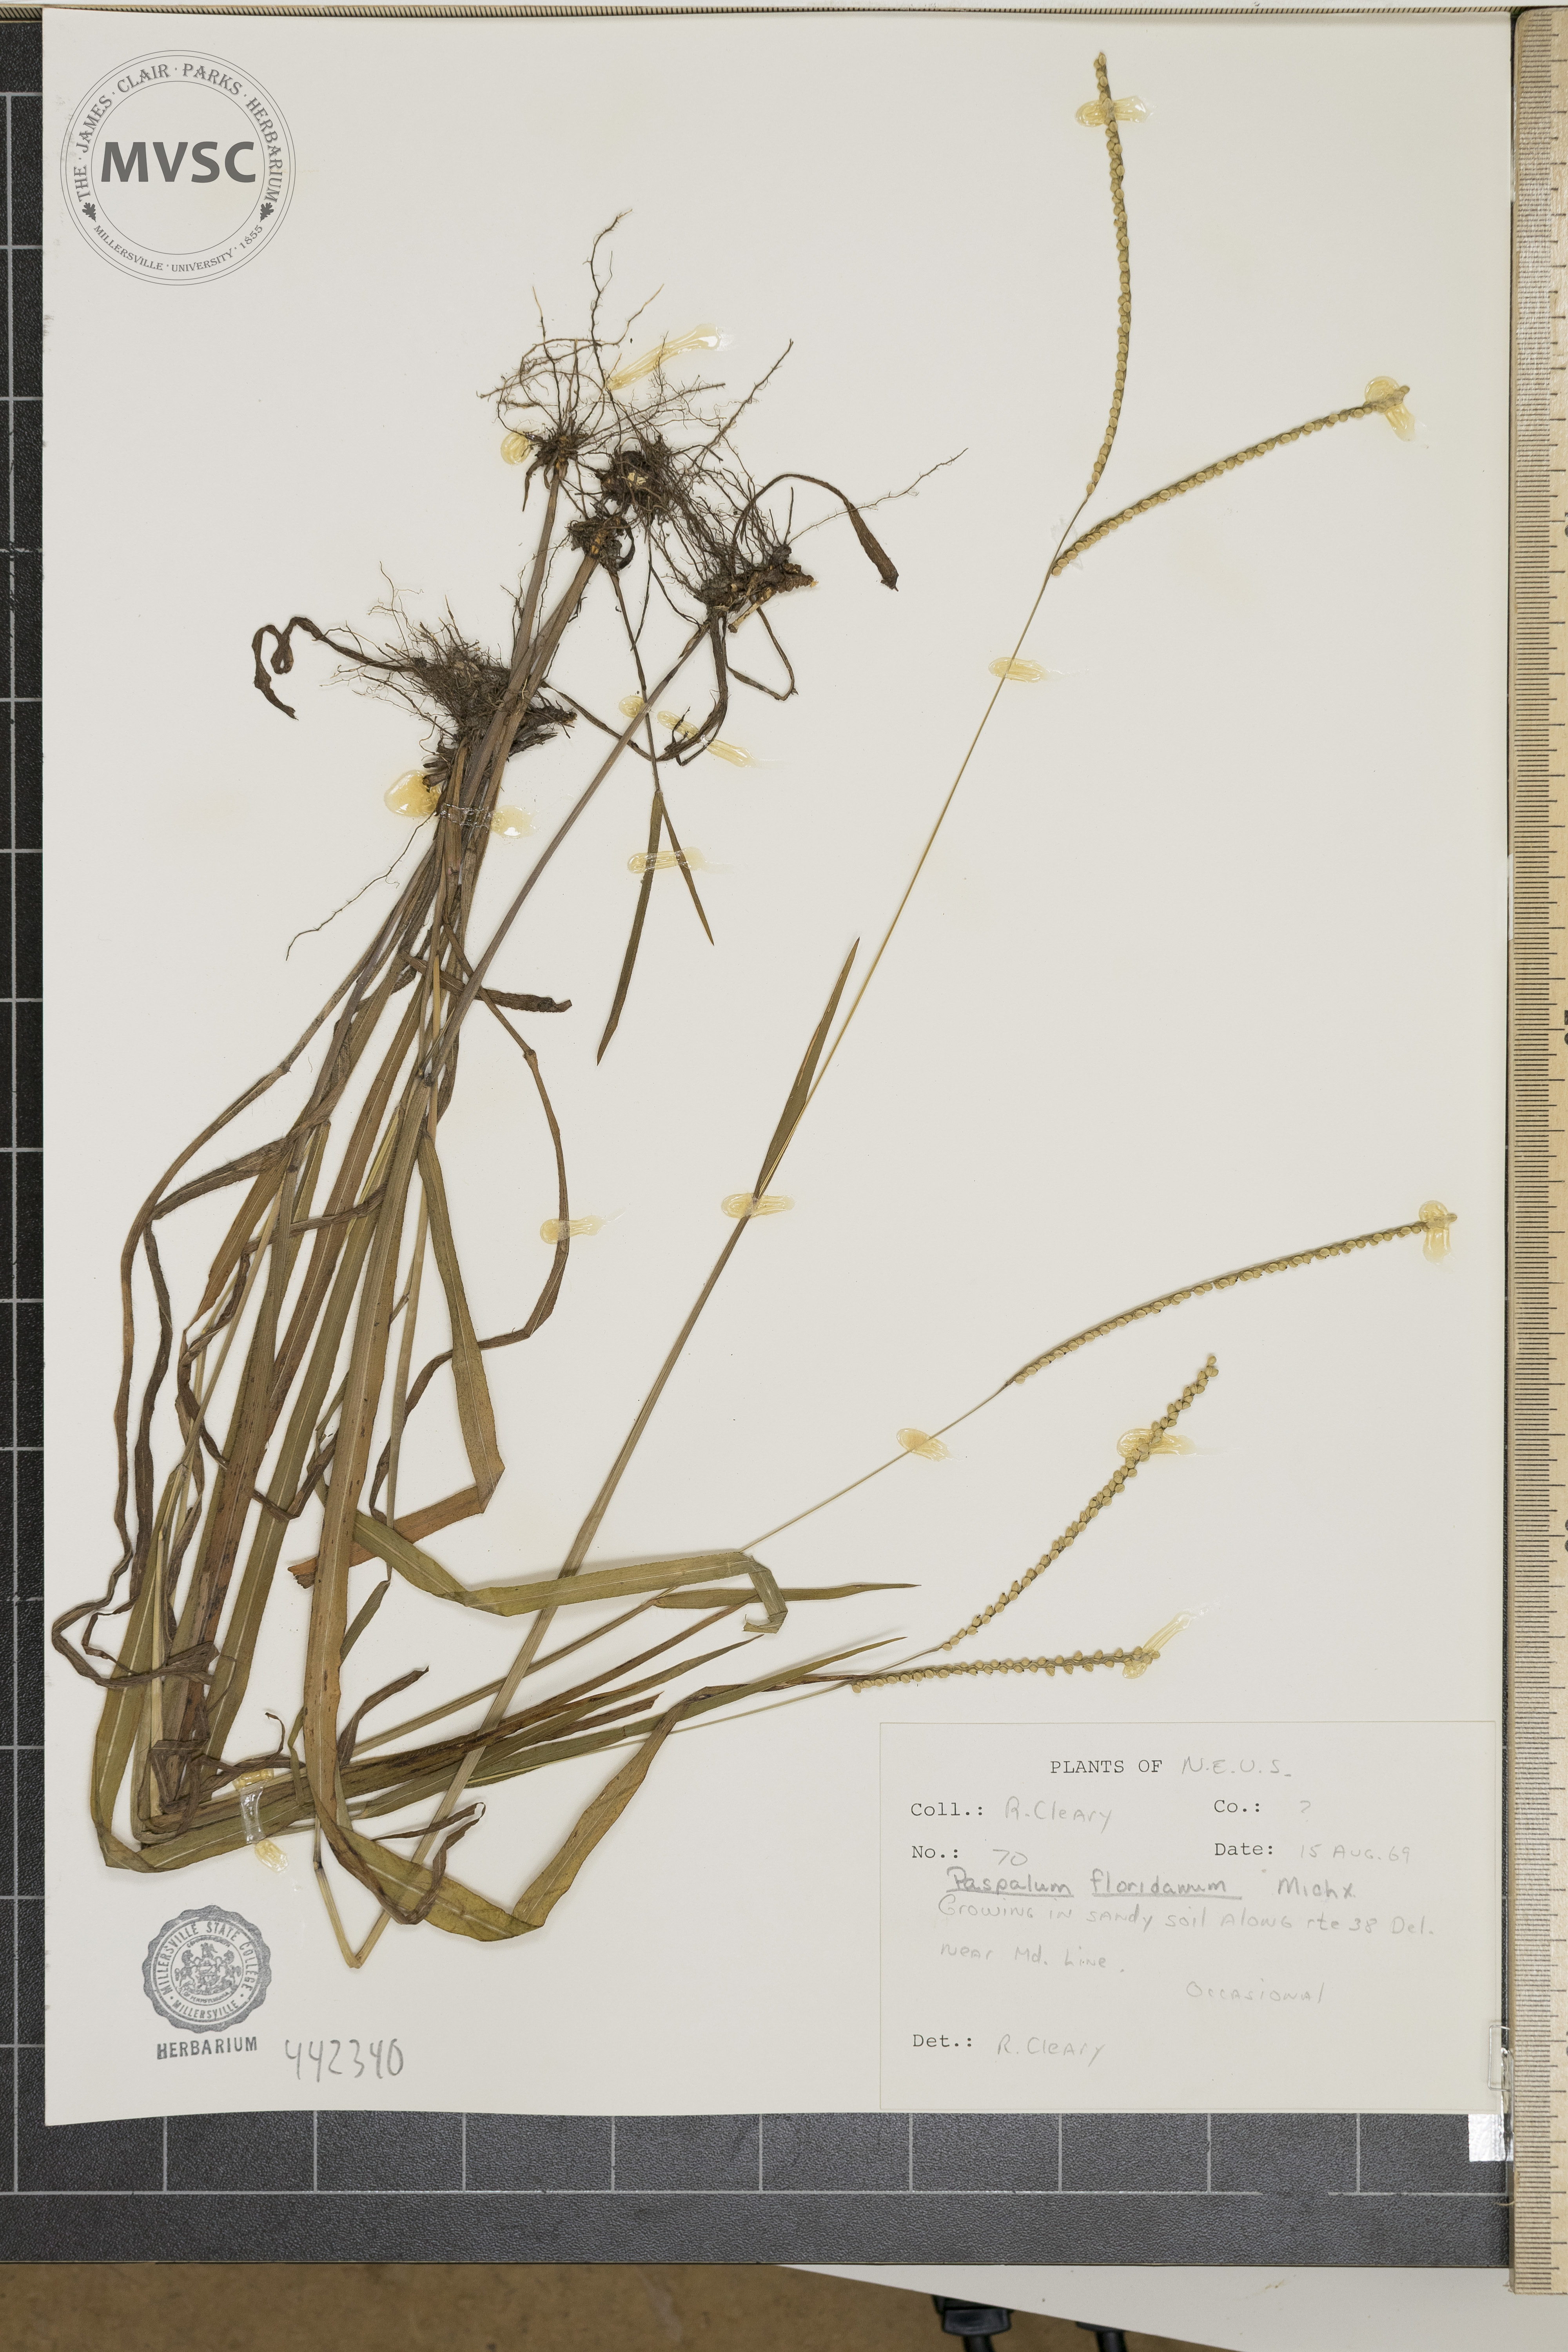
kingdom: Plantae
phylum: Tracheophyta
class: Liliopsida
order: Poales
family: Poaceae
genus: Paspalum
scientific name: Paspalum floridanum
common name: Florida paspalum
